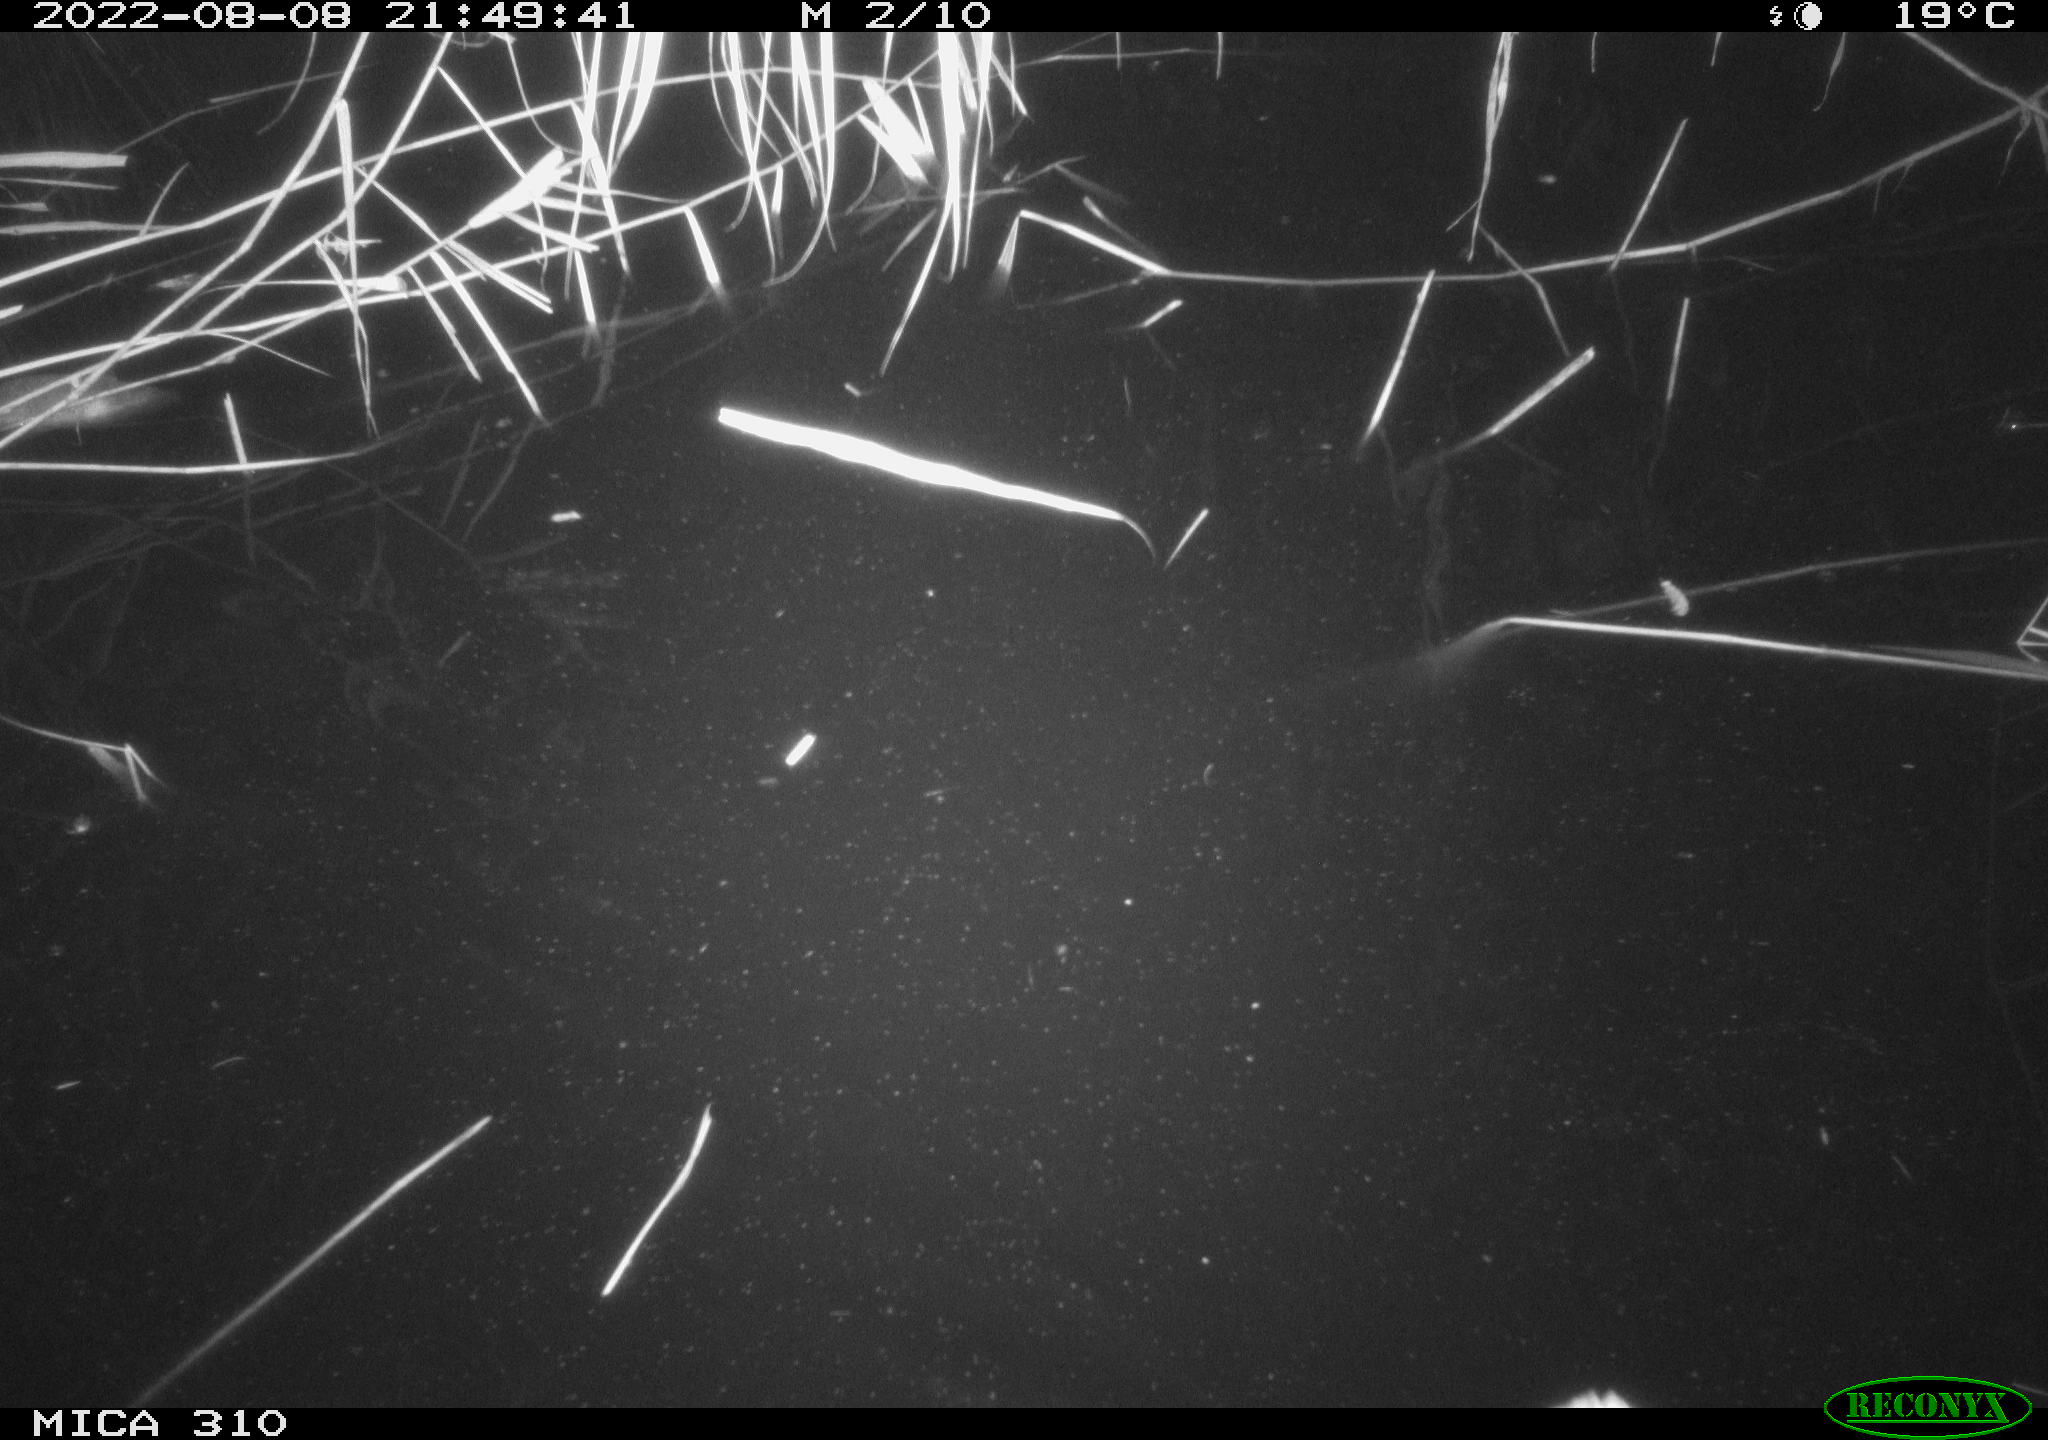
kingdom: Animalia
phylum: Chordata
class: Aves
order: Anseriformes
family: Anatidae
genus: Anas
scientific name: Anas platyrhynchos
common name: Mallard
